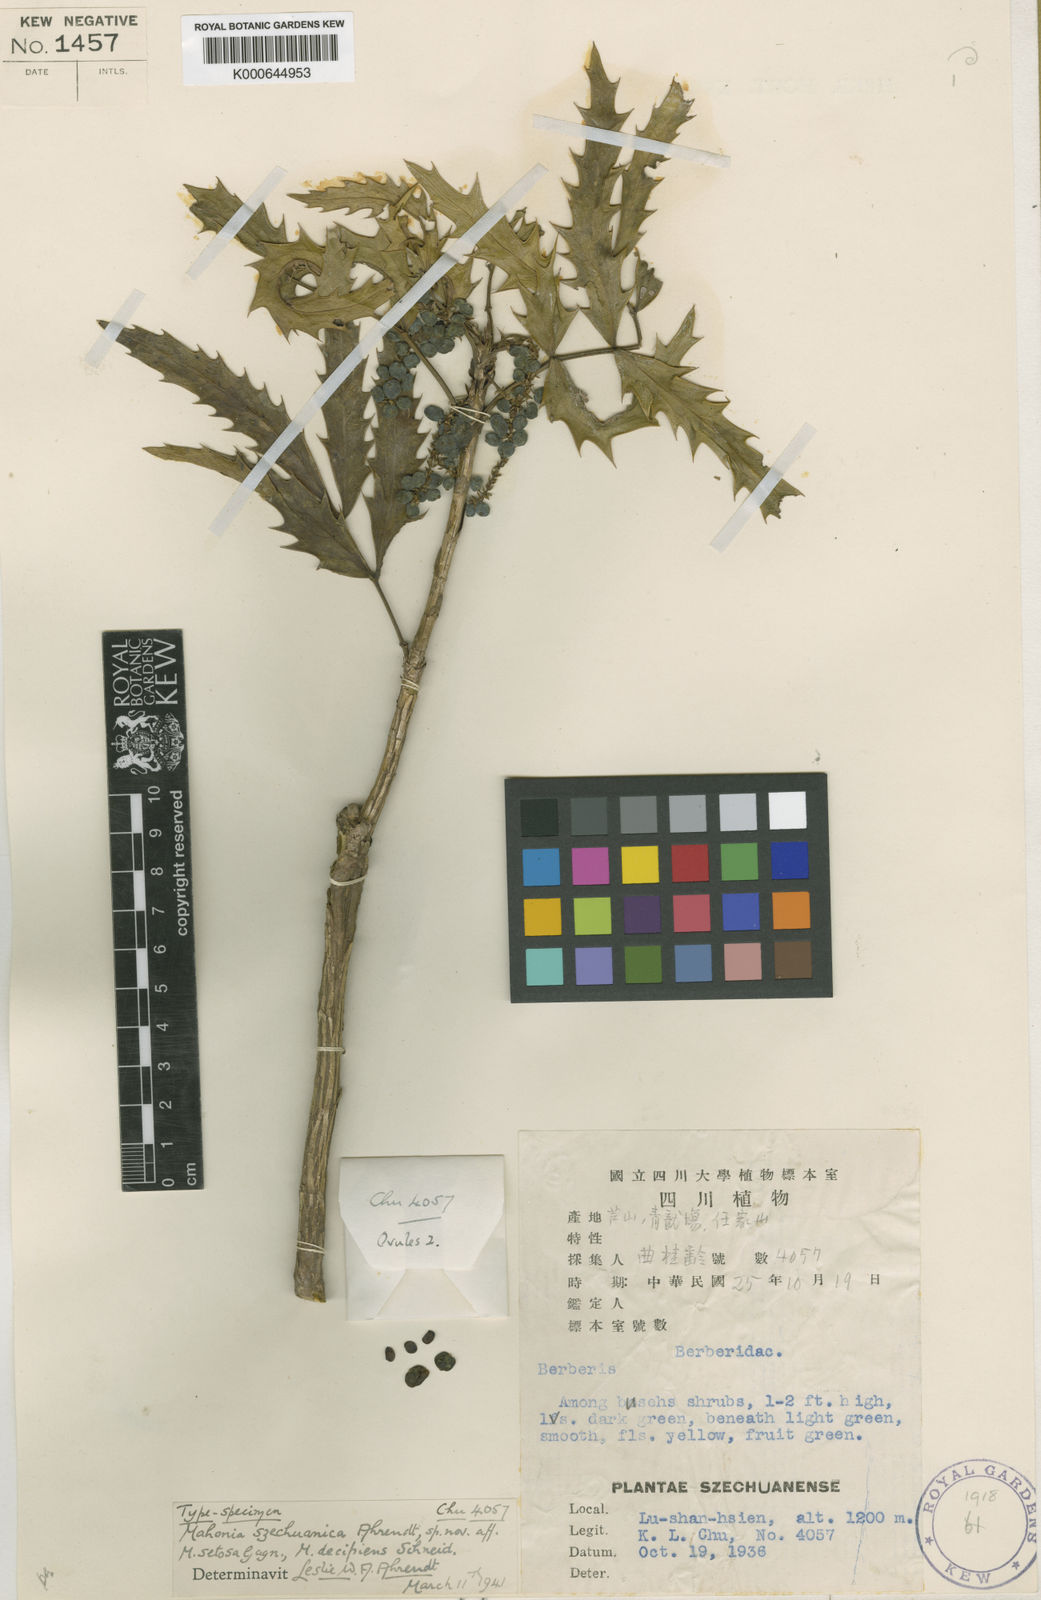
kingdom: Plantae
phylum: Tracheophyta
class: Magnoliopsida
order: Ranunculales
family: Berberidaceae
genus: Mahonia
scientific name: Mahonia
